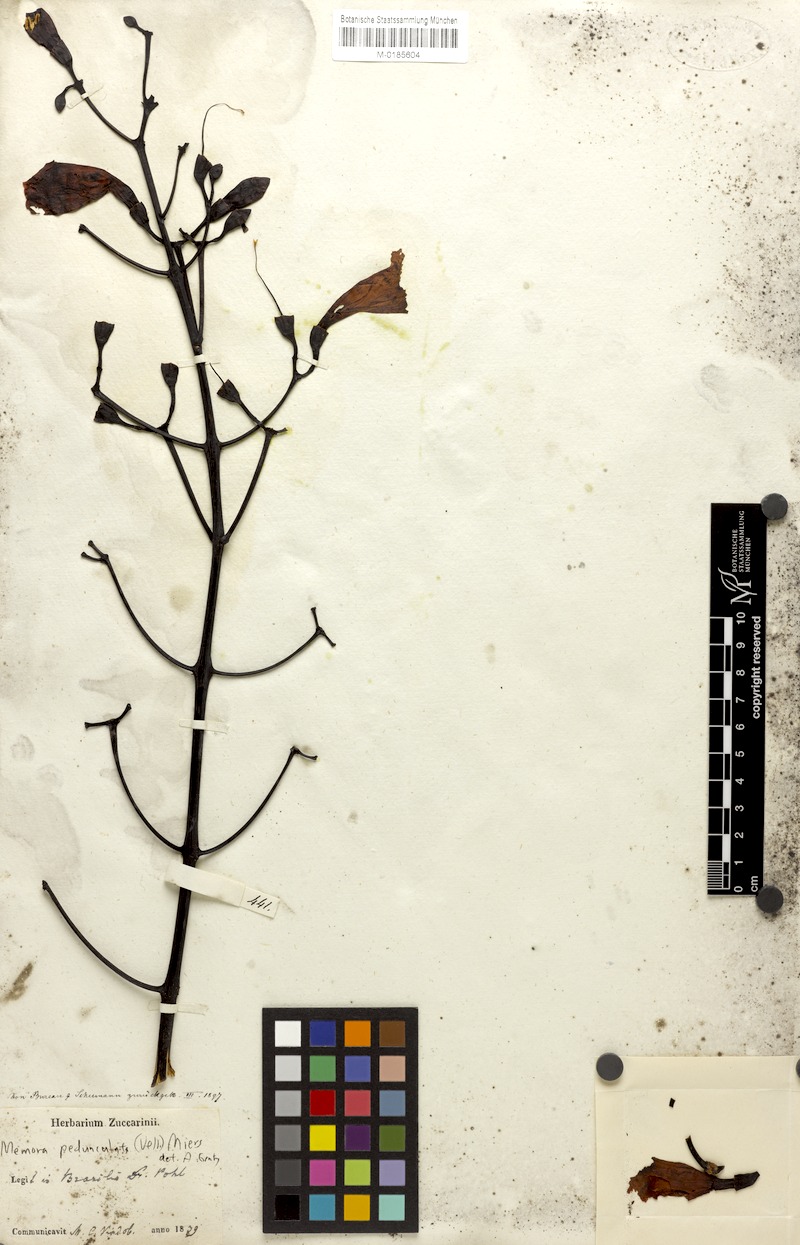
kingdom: Plantae
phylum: Tracheophyta
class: Magnoliopsida
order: Lamiales
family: Bignoniaceae
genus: Adenocalymma
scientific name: Adenocalymma pedunculatum
